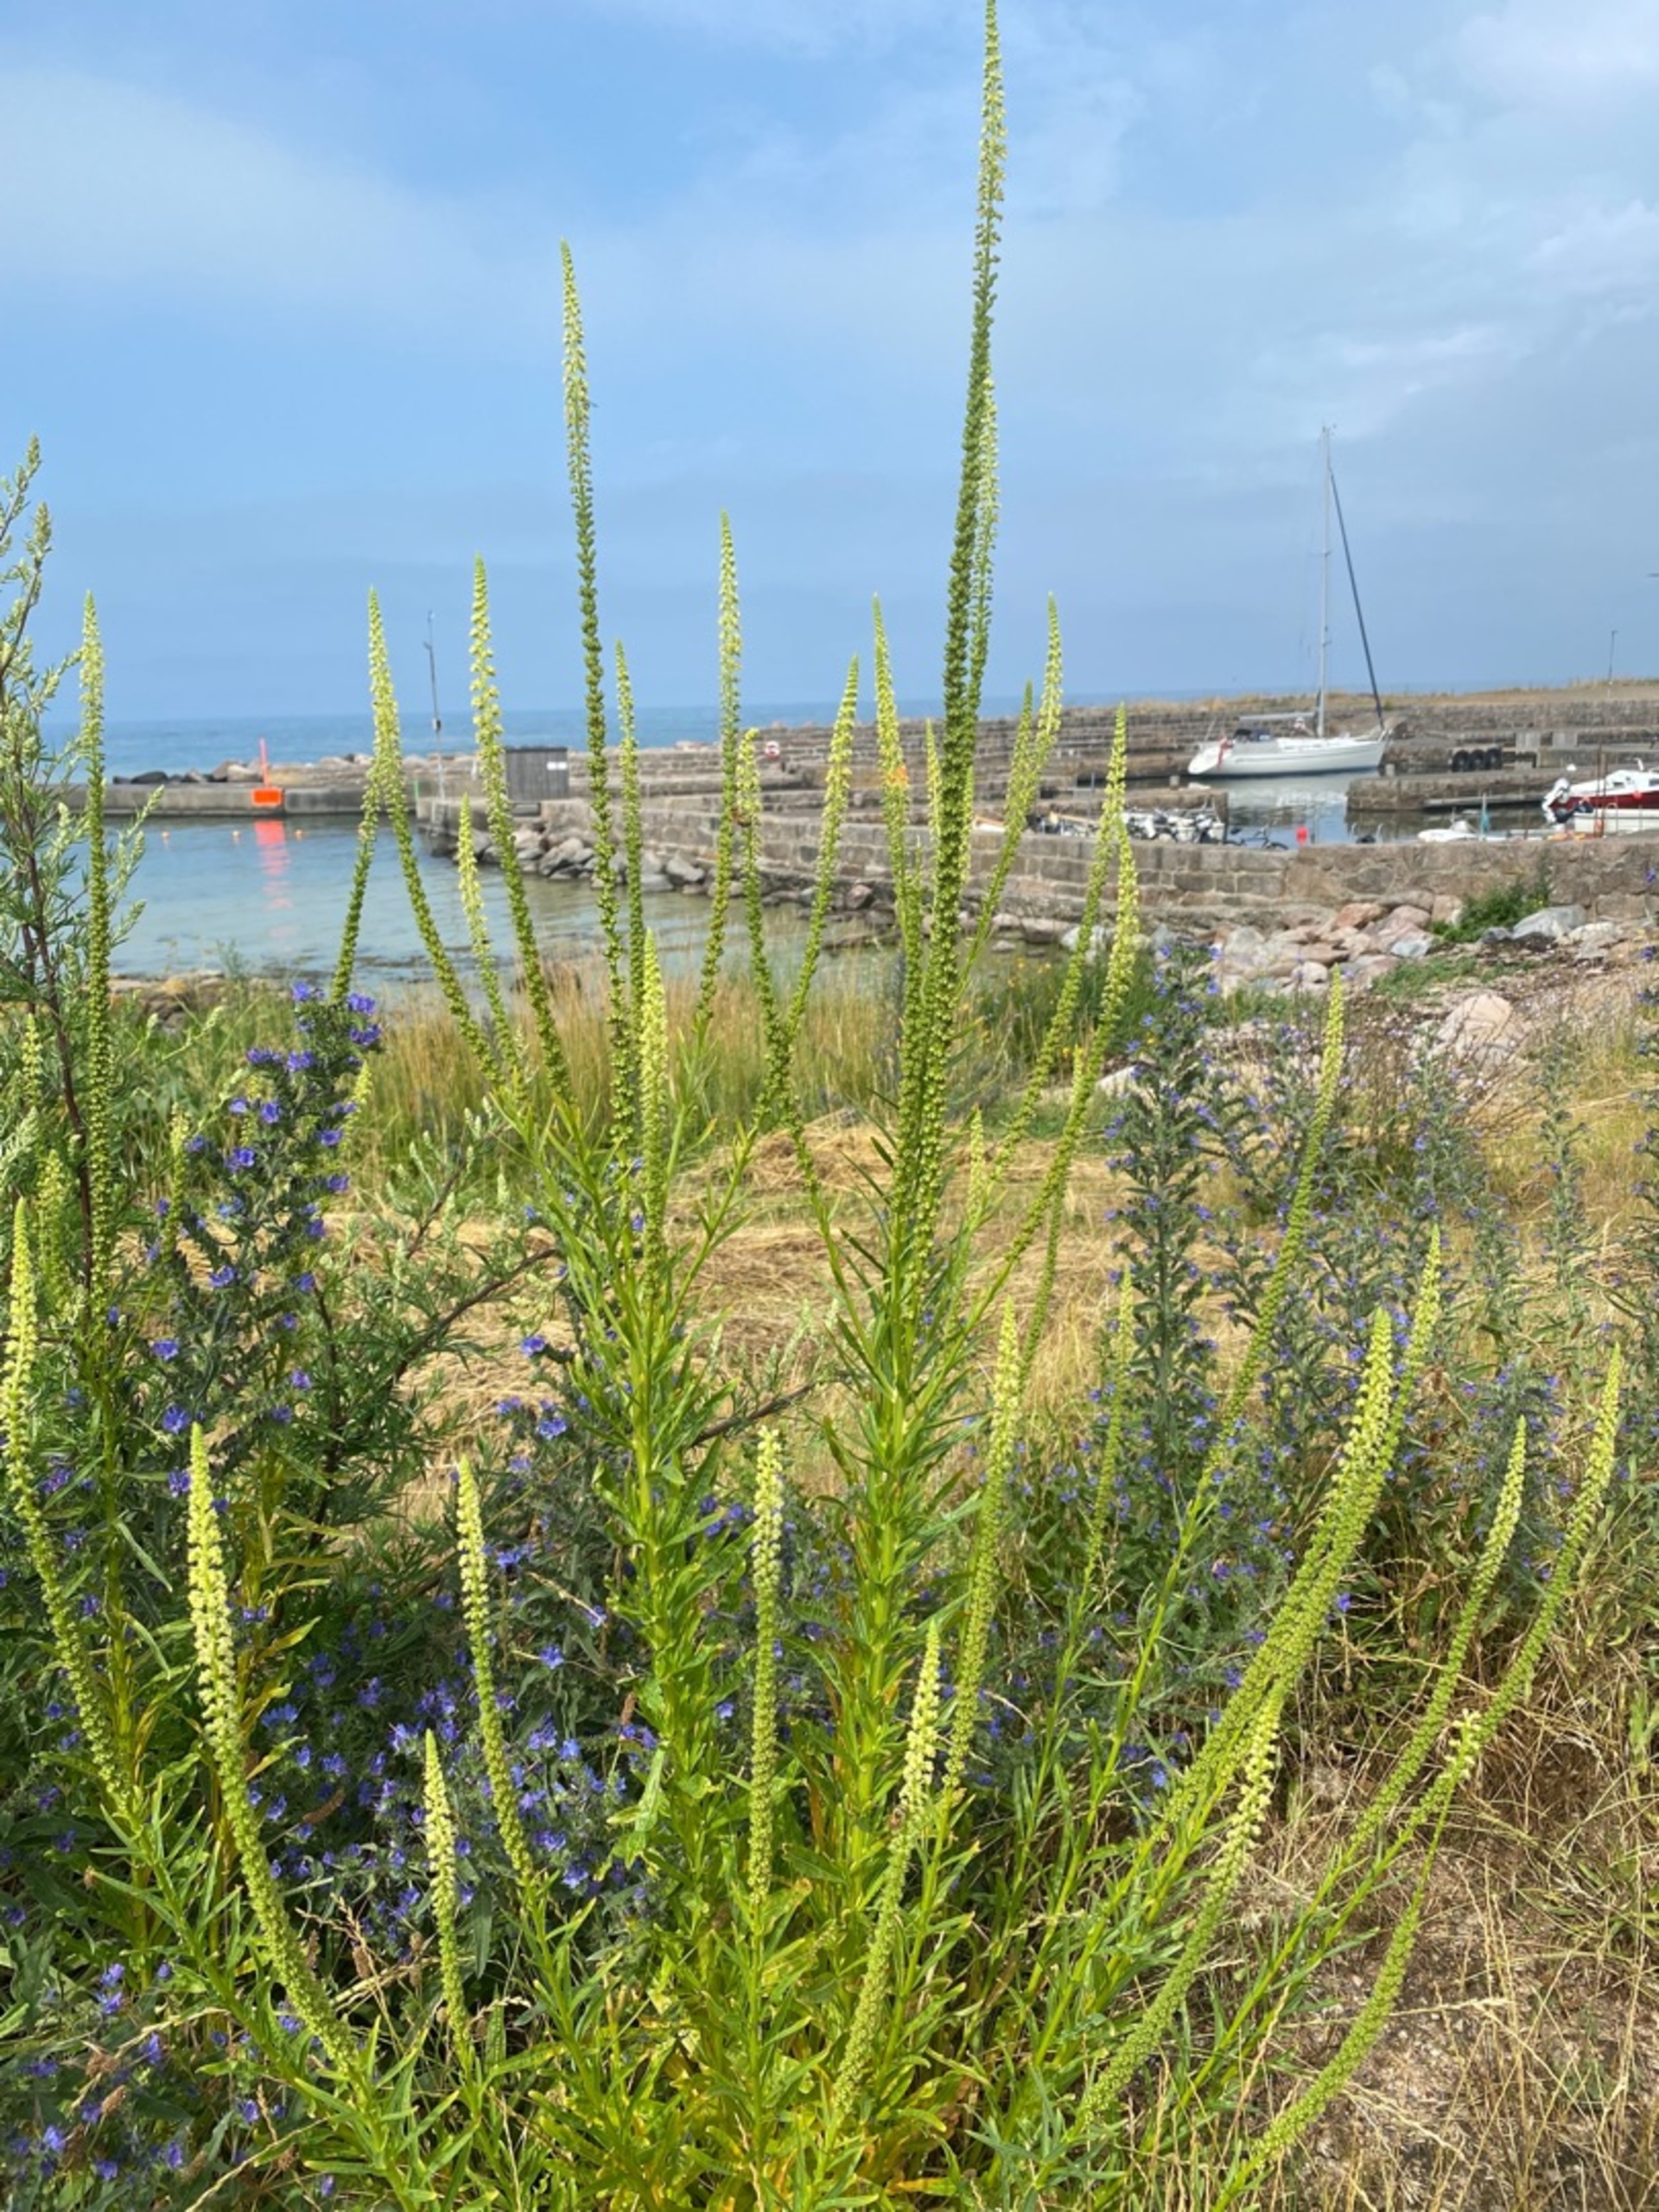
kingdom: Plantae
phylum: Tracheophyta
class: Magnoliopsida
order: Brassicales
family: Resedaceae
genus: Reseda
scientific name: Reseda luteola
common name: Farve-reseda
